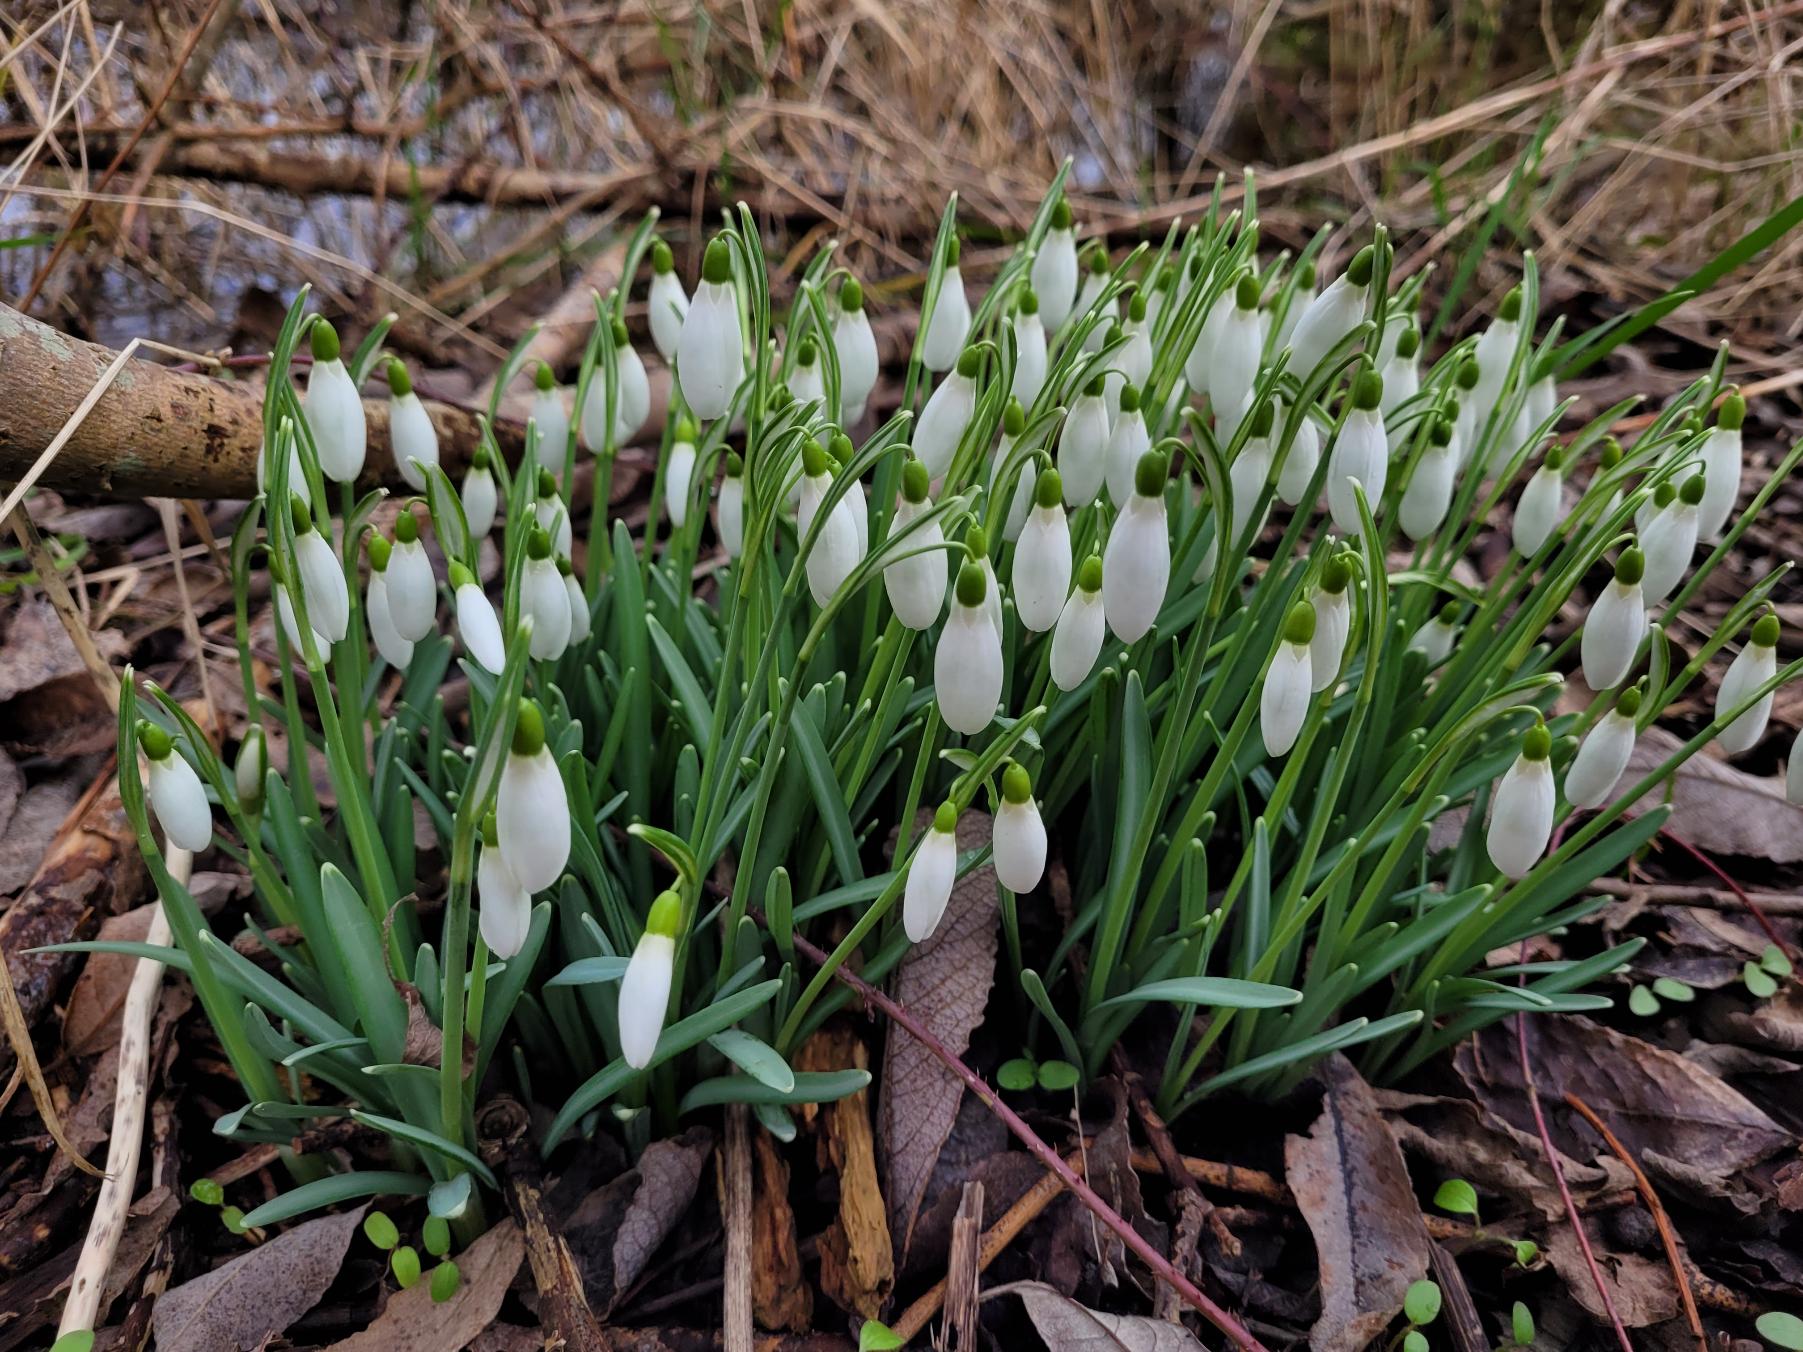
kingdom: Plantae
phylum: Tracheophyta
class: Liliopsida
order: Asparagales
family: Amaryllidaceae
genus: Galanthus
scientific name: Galanthus nivalis
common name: Vintergæk
